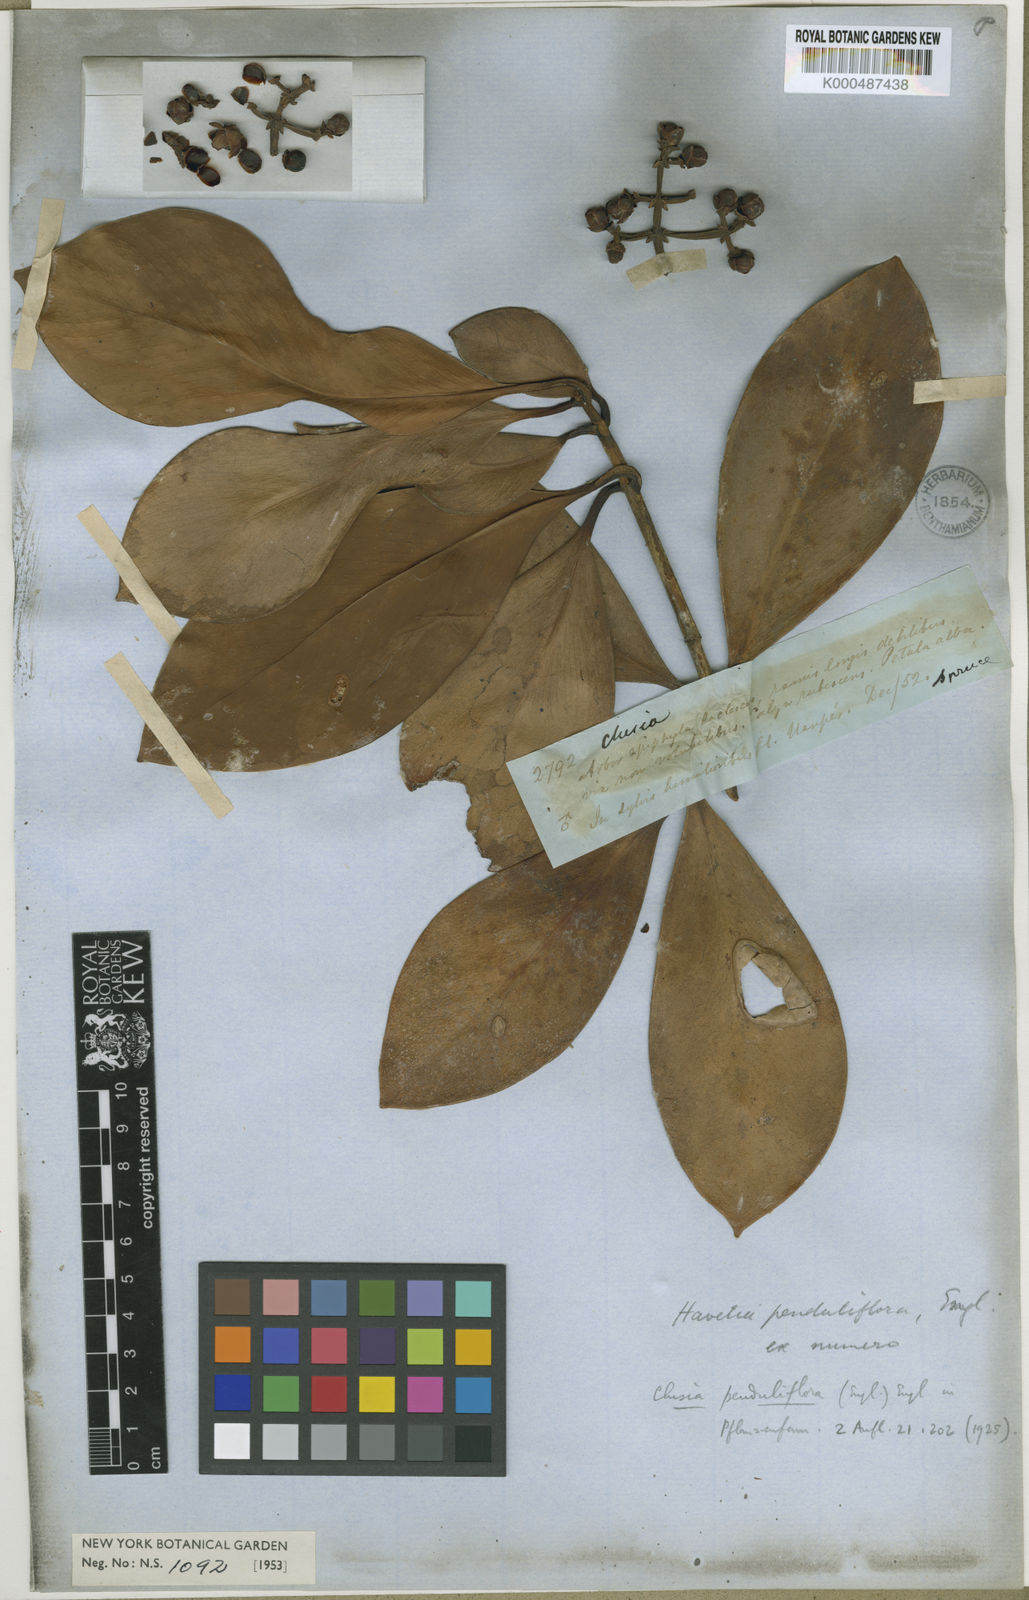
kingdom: Plantae
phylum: Tracheophyta
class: Magnoliopsida
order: Malpighiales
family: Clusiaceae
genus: Clusia
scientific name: Clusia penduliflora
